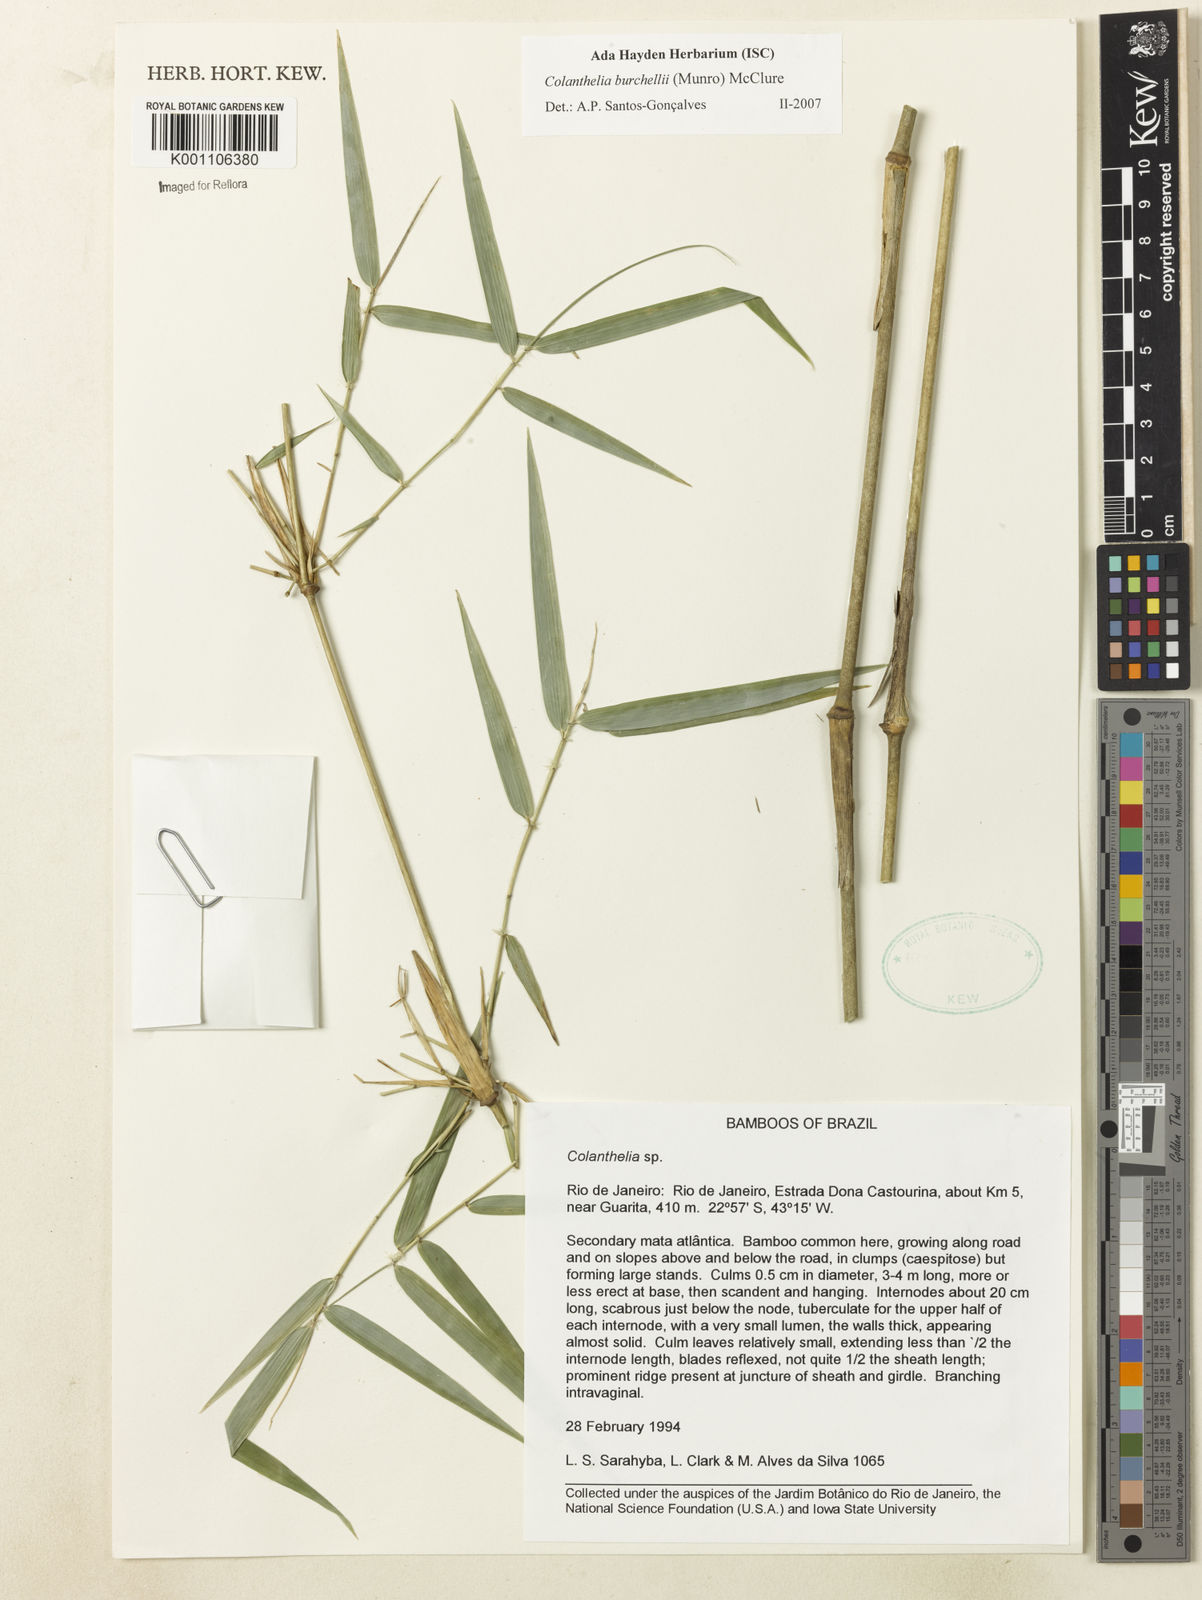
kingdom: Plantae
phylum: Tracheophyta
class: Liliopsida
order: Poales
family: Poaceae
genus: Colanthelia
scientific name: Colanthelia burchellii
